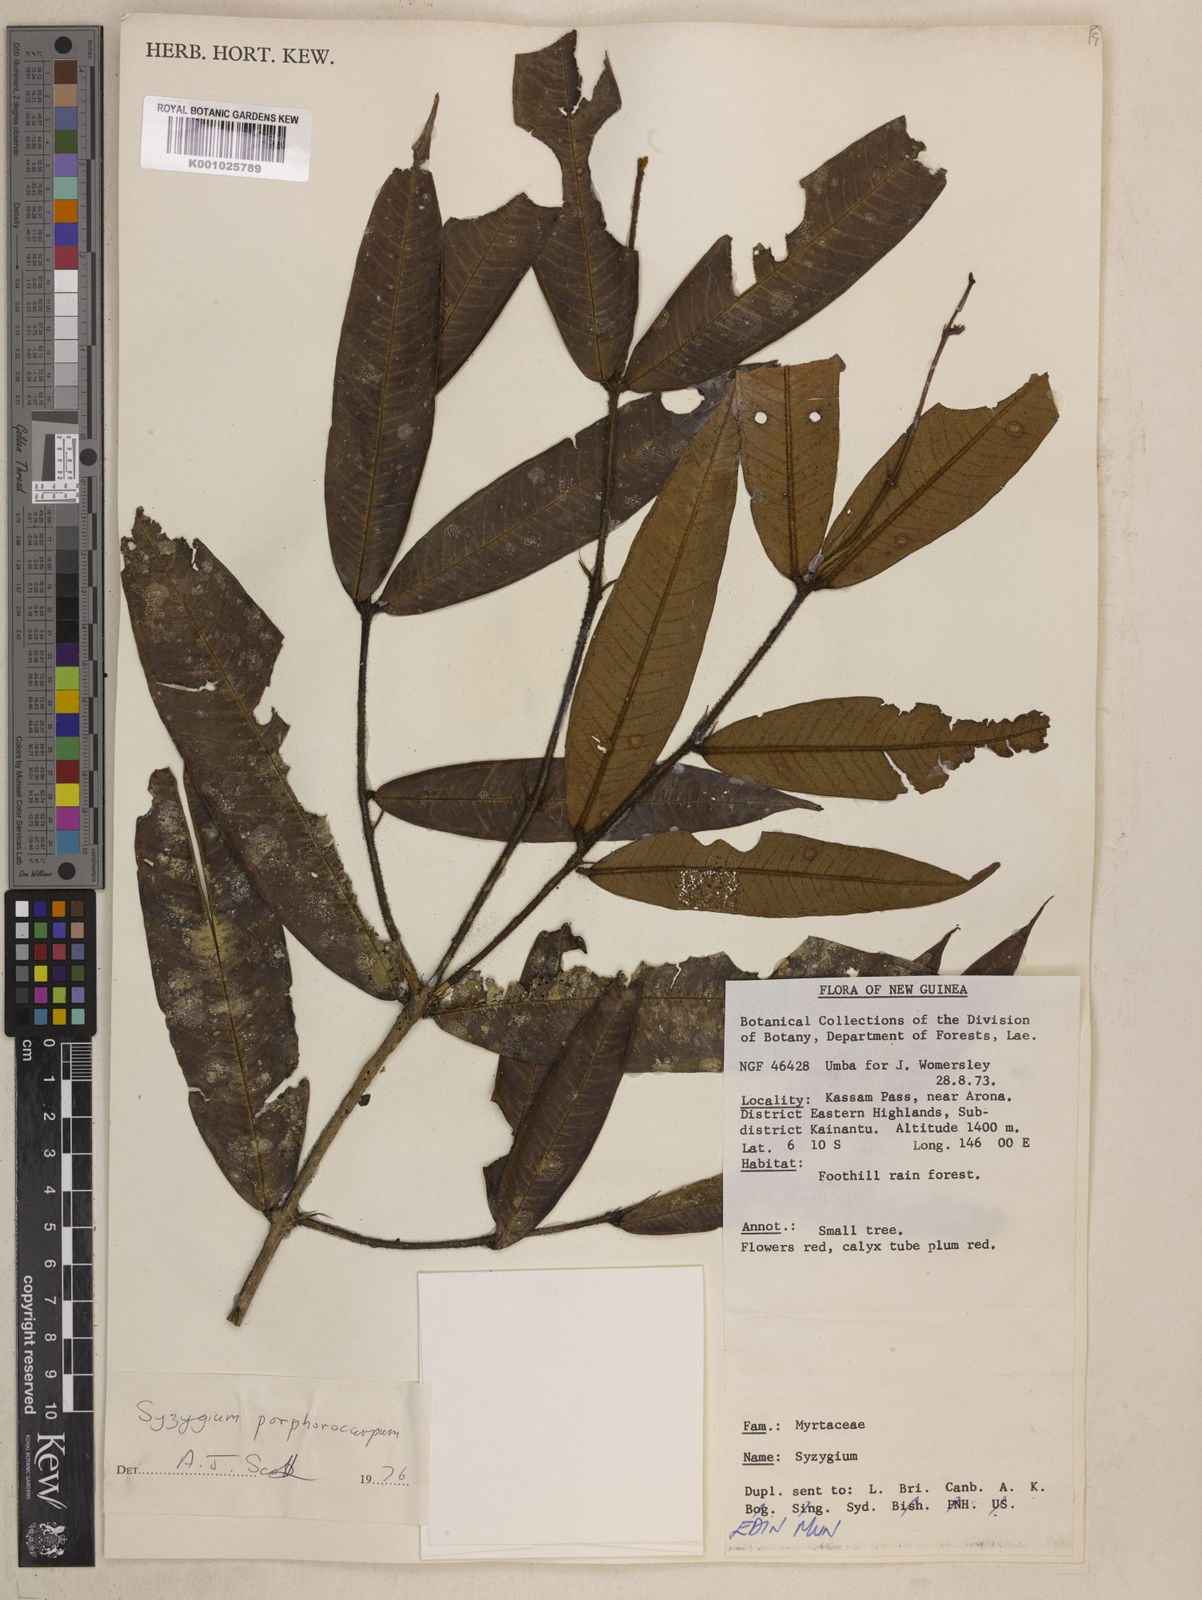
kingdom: Plantae
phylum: Tracheophyta
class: Magnoliopsida
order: Myrtales
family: Myrtaceae
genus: Syzygium
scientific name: Syzygium porphyrocarpum
